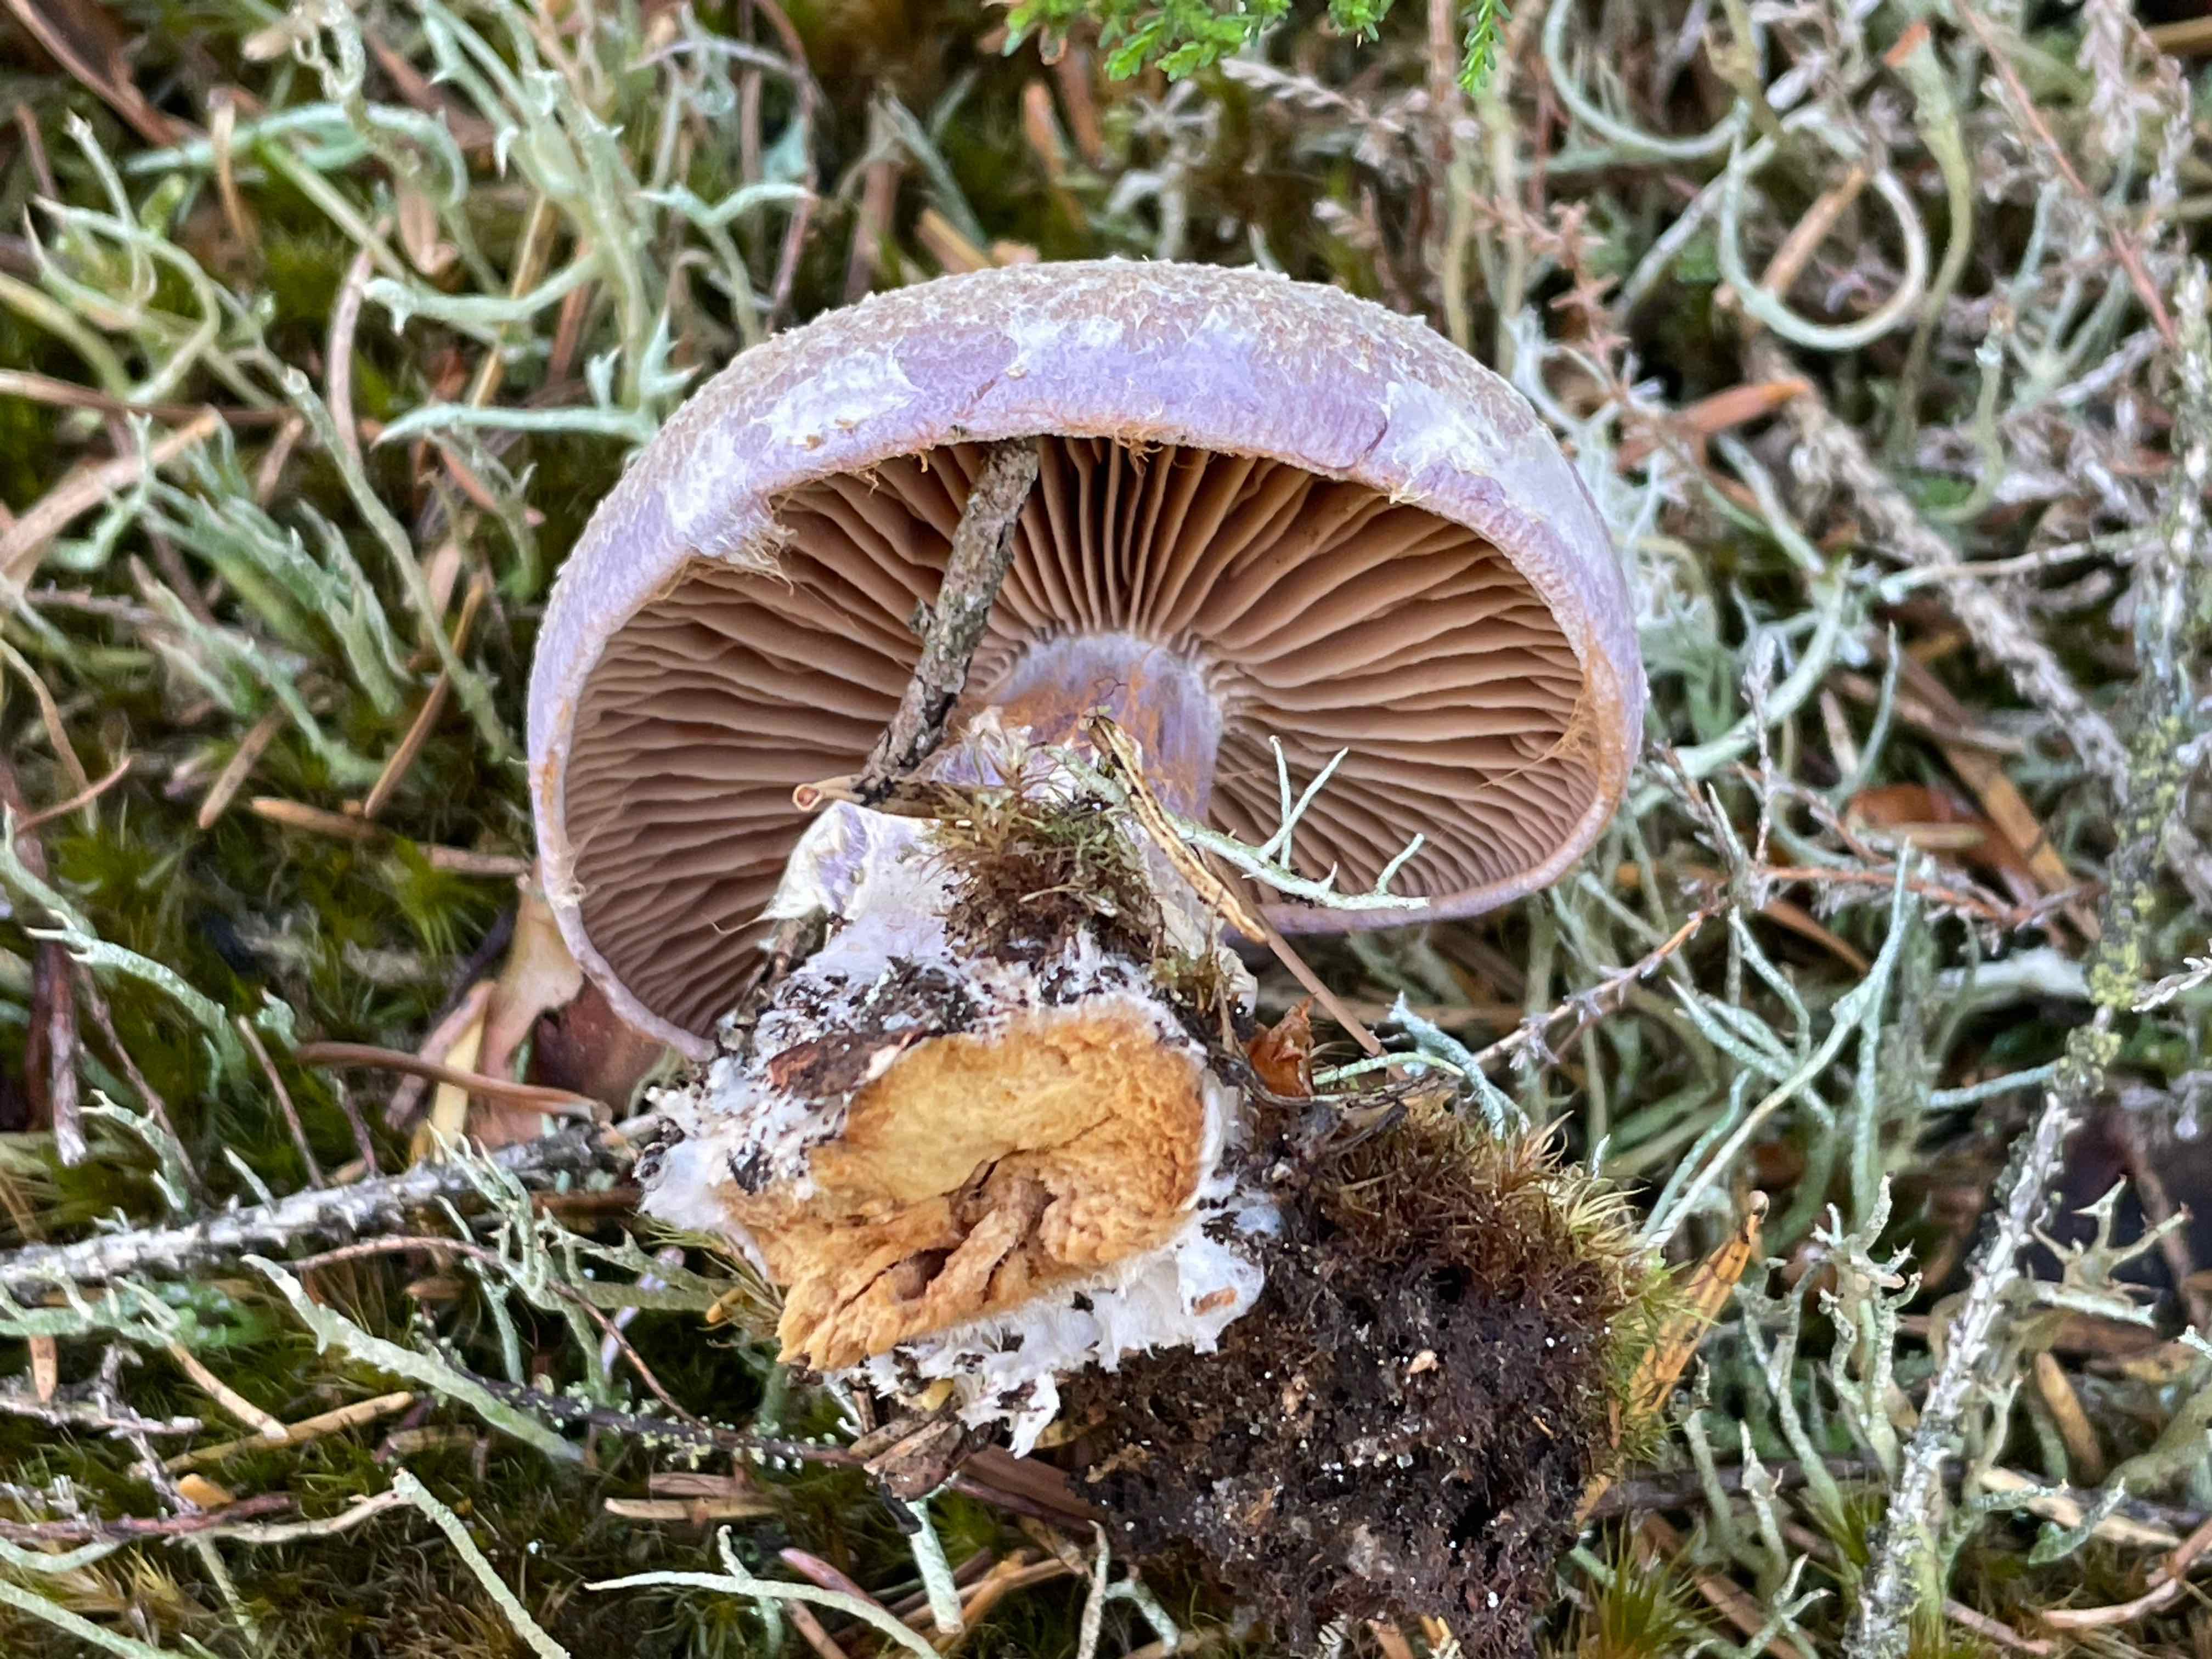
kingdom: Fungi
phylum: Basidiomycota
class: Agaricomycetes
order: Agaricales
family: Cortinariaceae
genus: Cortinarius
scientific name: Cortinarius traganus
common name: safrankødet slørhat
